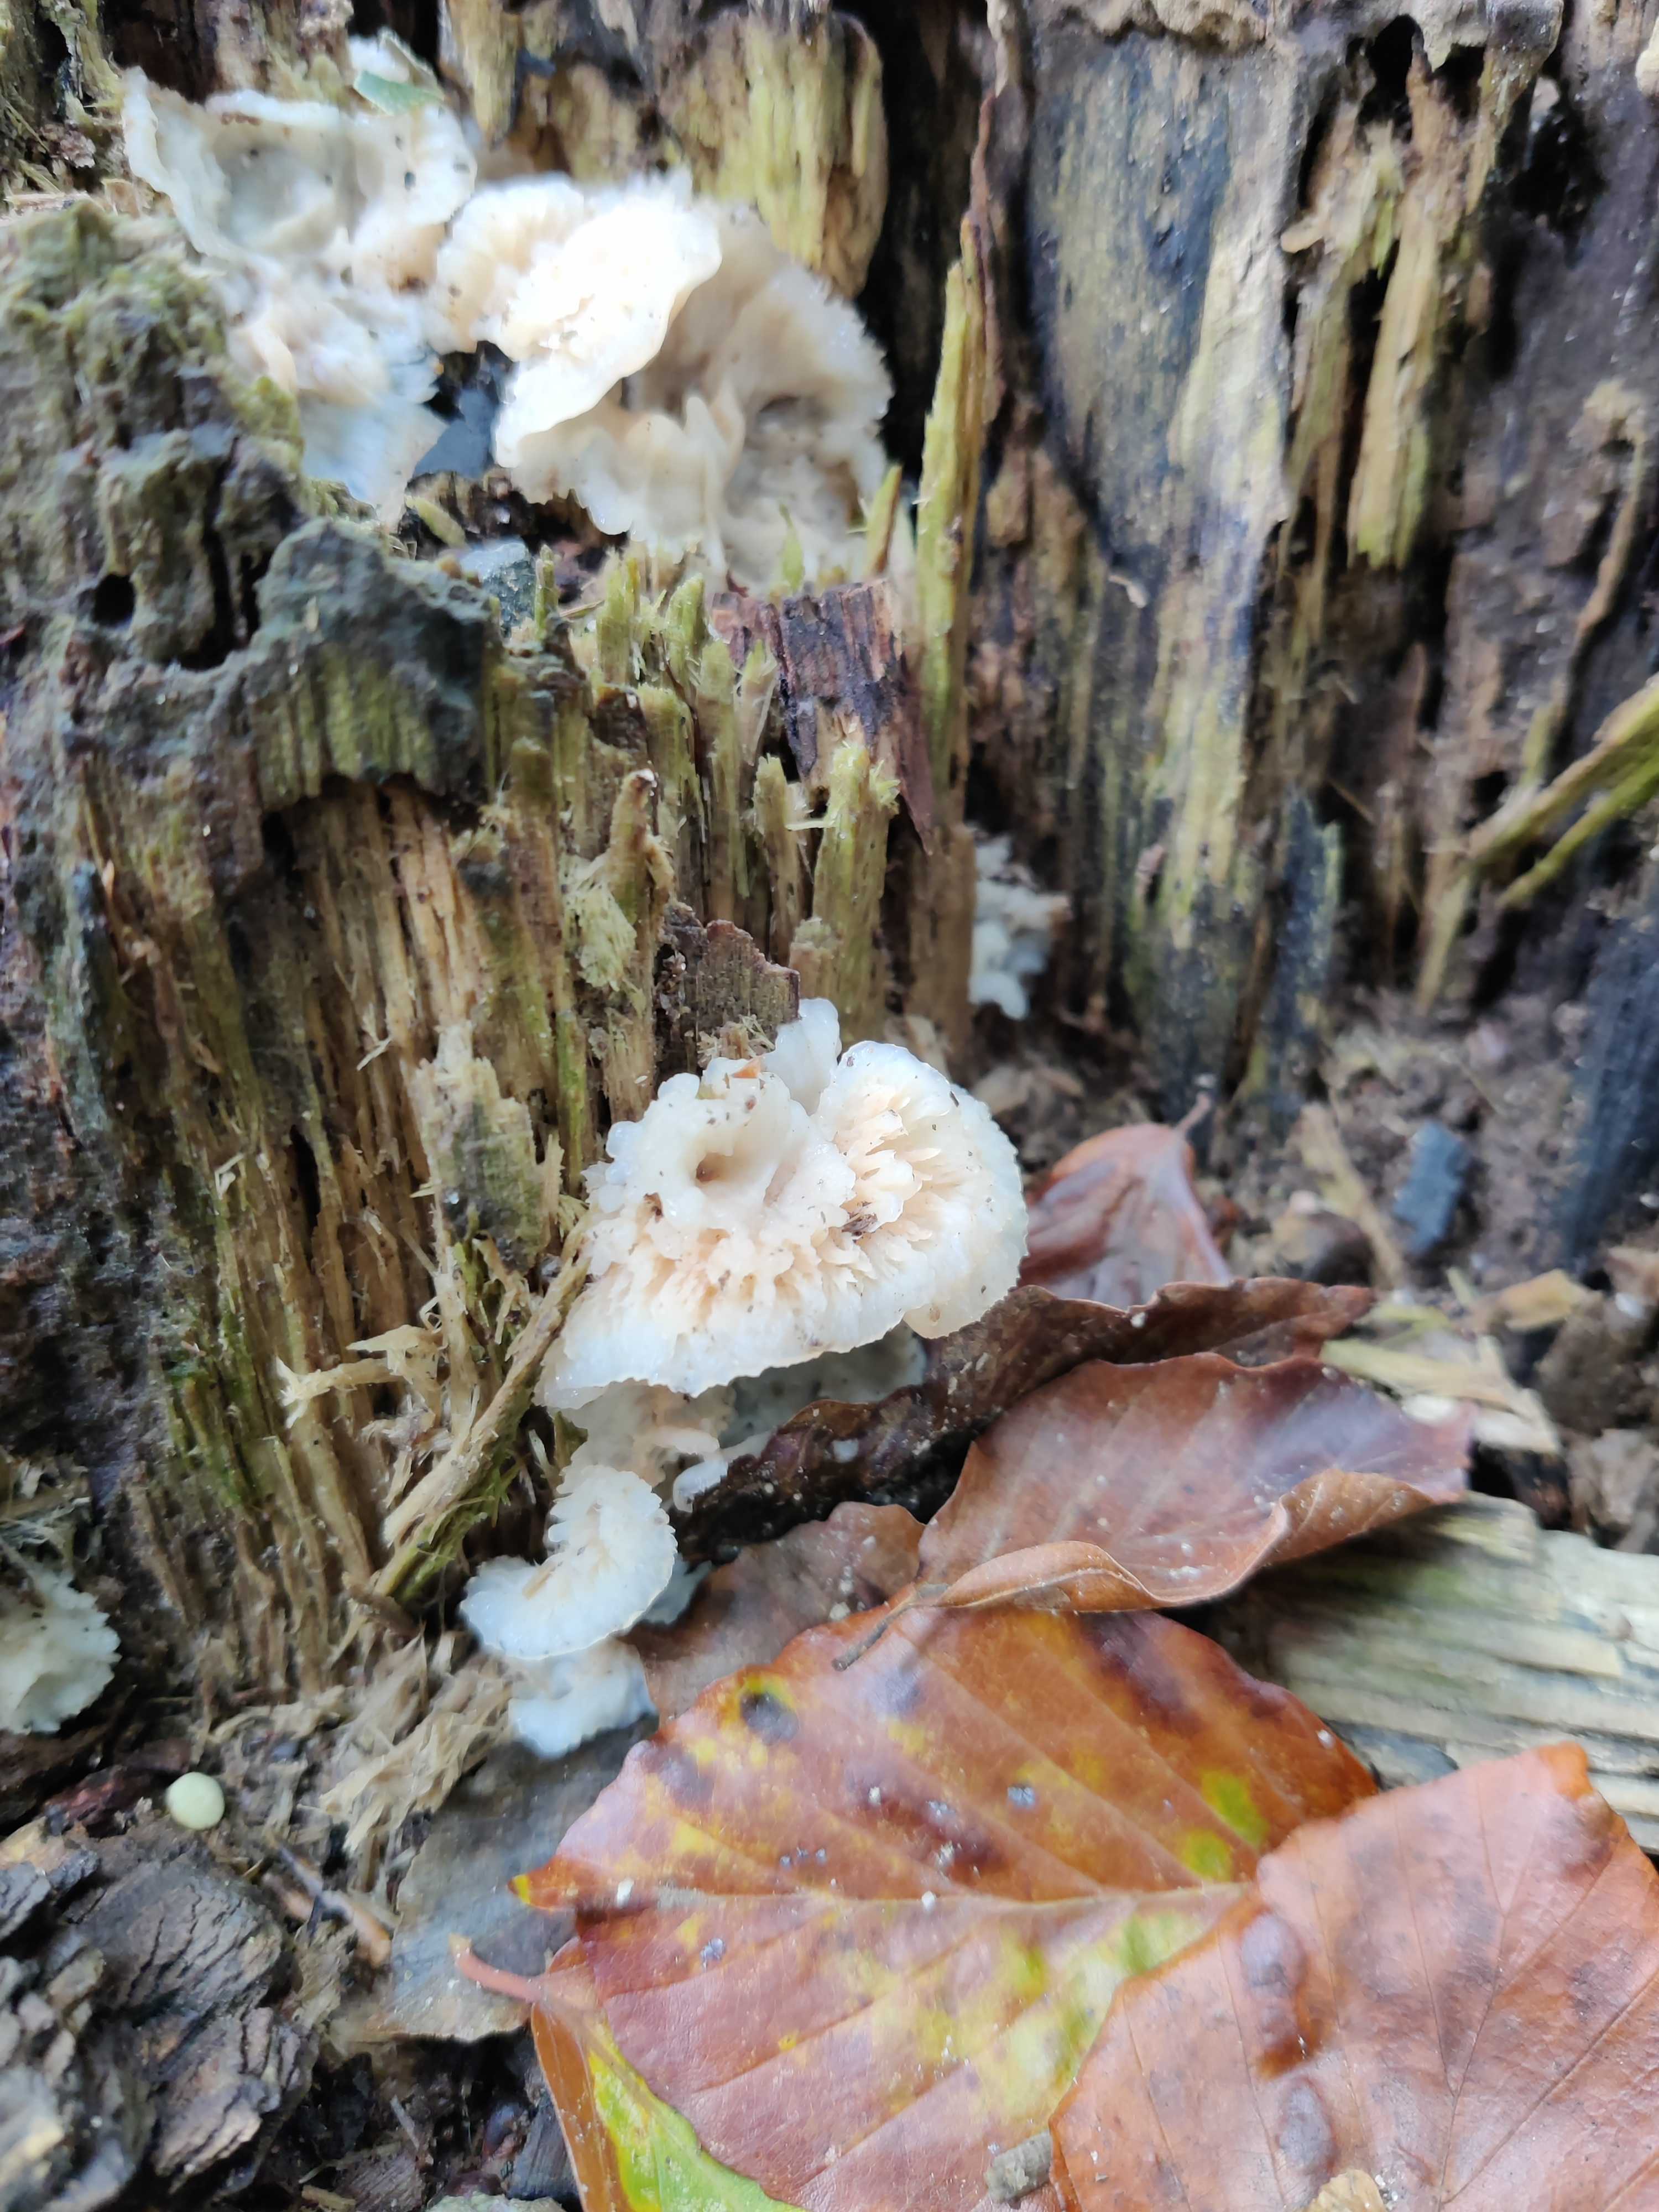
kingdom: Fungi
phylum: Basidiomycota
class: Agaricomycetes
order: Polyporales
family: Meruliaceae
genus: Phlebia
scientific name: Phlebia tremellosa
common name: bævrende åresvamp
